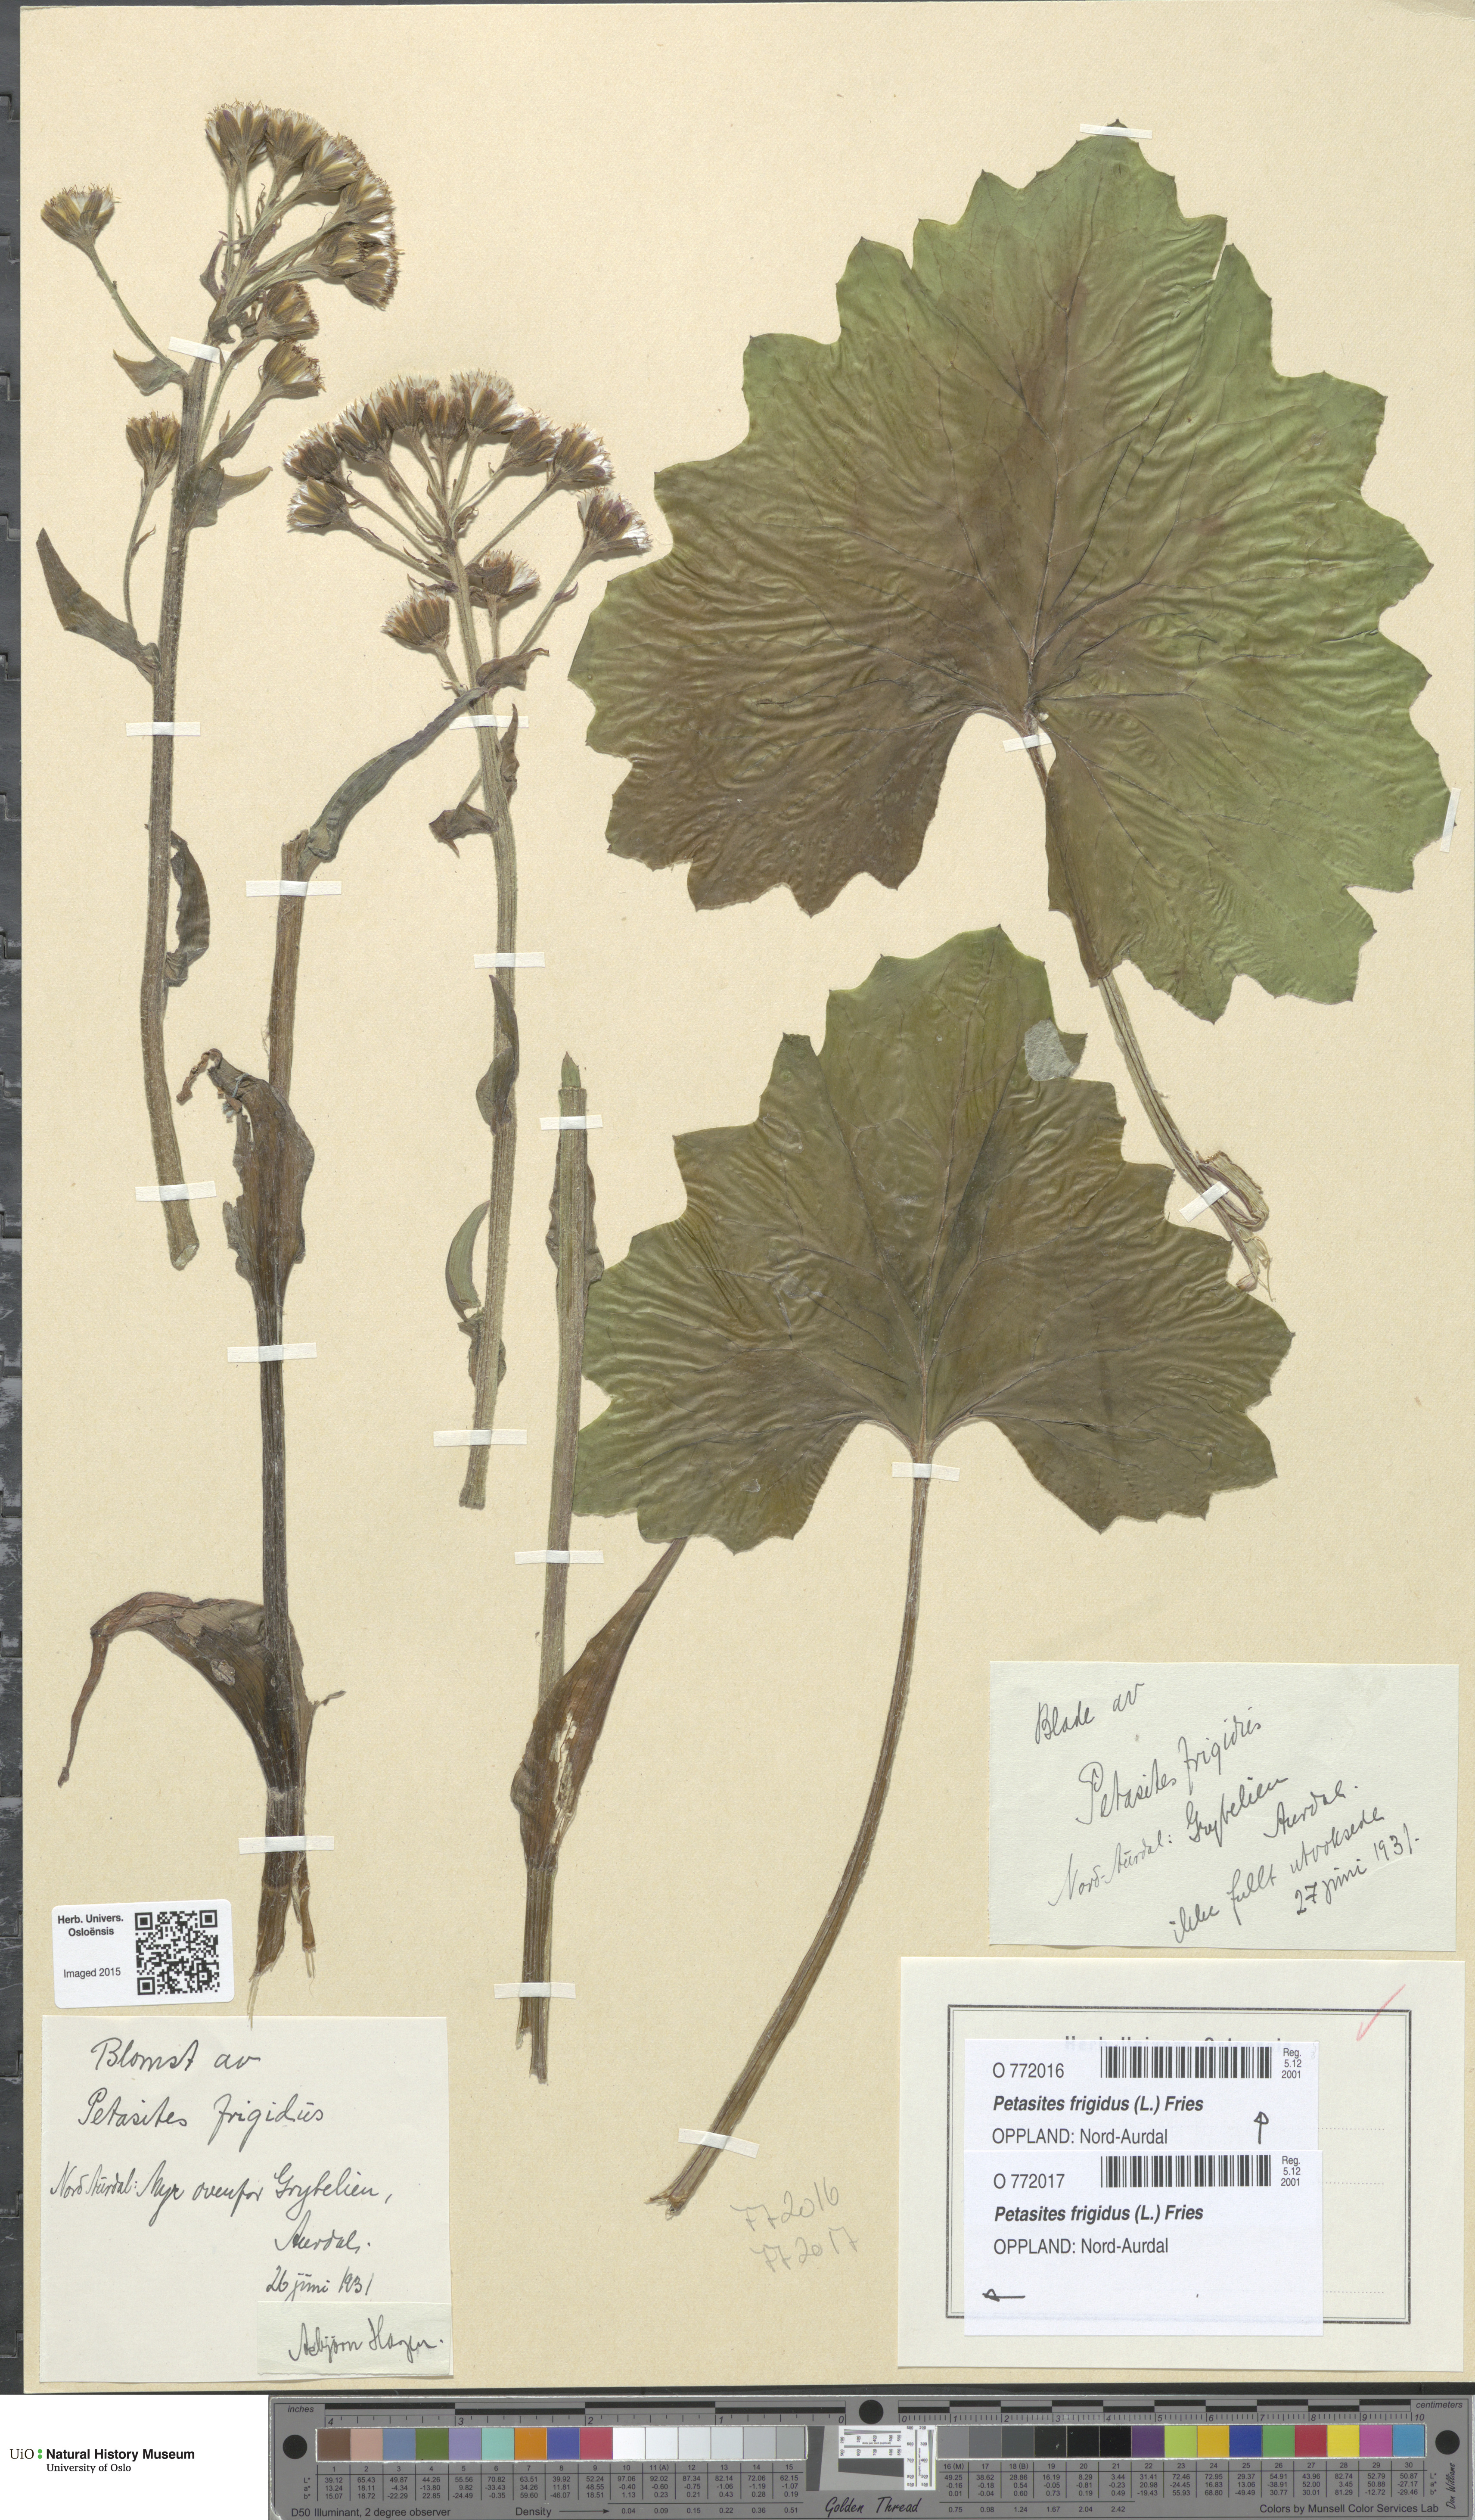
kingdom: Plantae
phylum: Tracheophyta
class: Magnoliopsida
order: Asterales
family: Asteraceae
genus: Petasites
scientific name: Petasites frigidus
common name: Arctic butterbur
